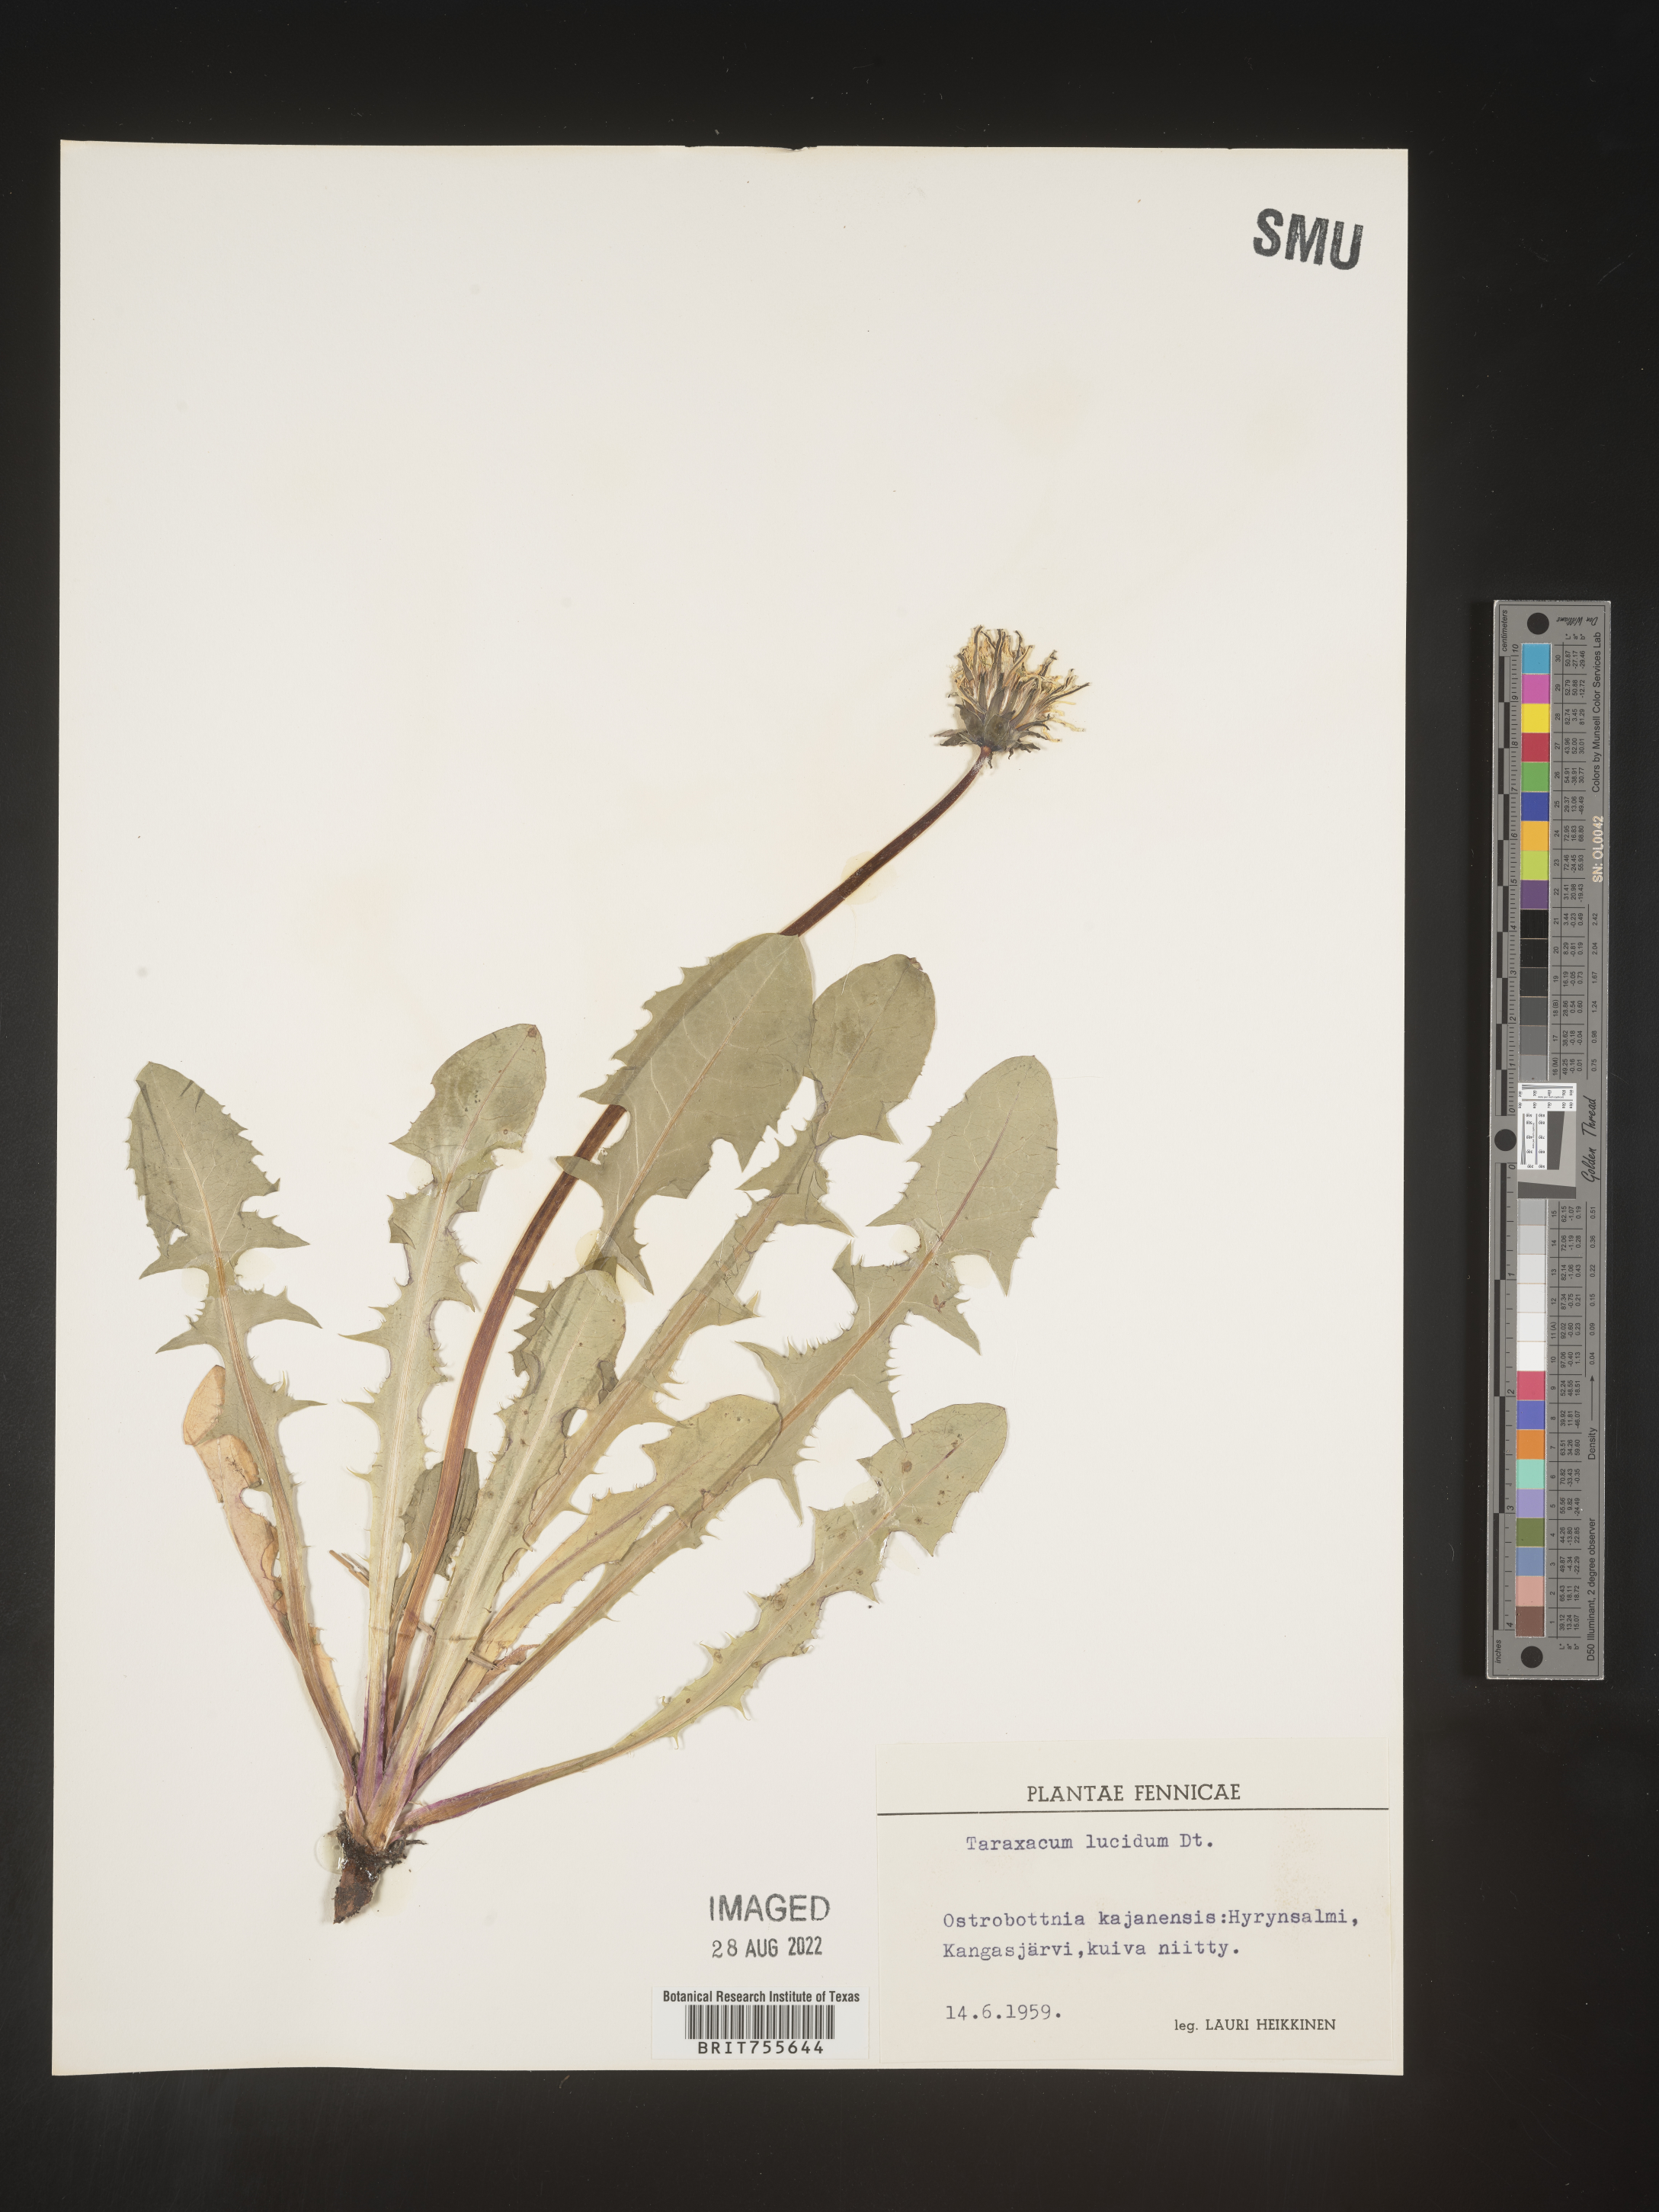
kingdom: Plantae
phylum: Tracheophyta
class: Magnoliopsida
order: Asterales
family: Asteraceae
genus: Taraxacum
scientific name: Taraxacum
